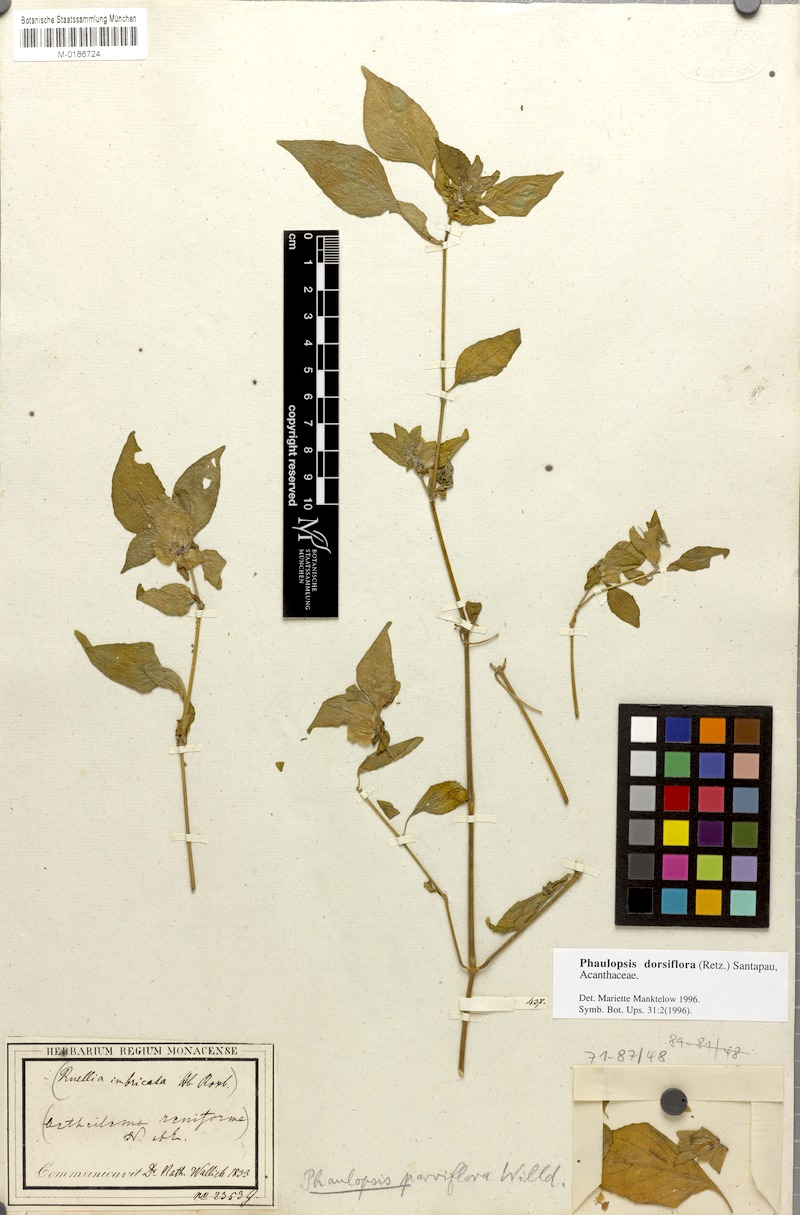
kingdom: Plantae
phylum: Tracheophyta
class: Magnoliopsida
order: Lamiales
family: Acanthaceae
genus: Phaulopsis
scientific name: Phaulopsis dorsiflora
